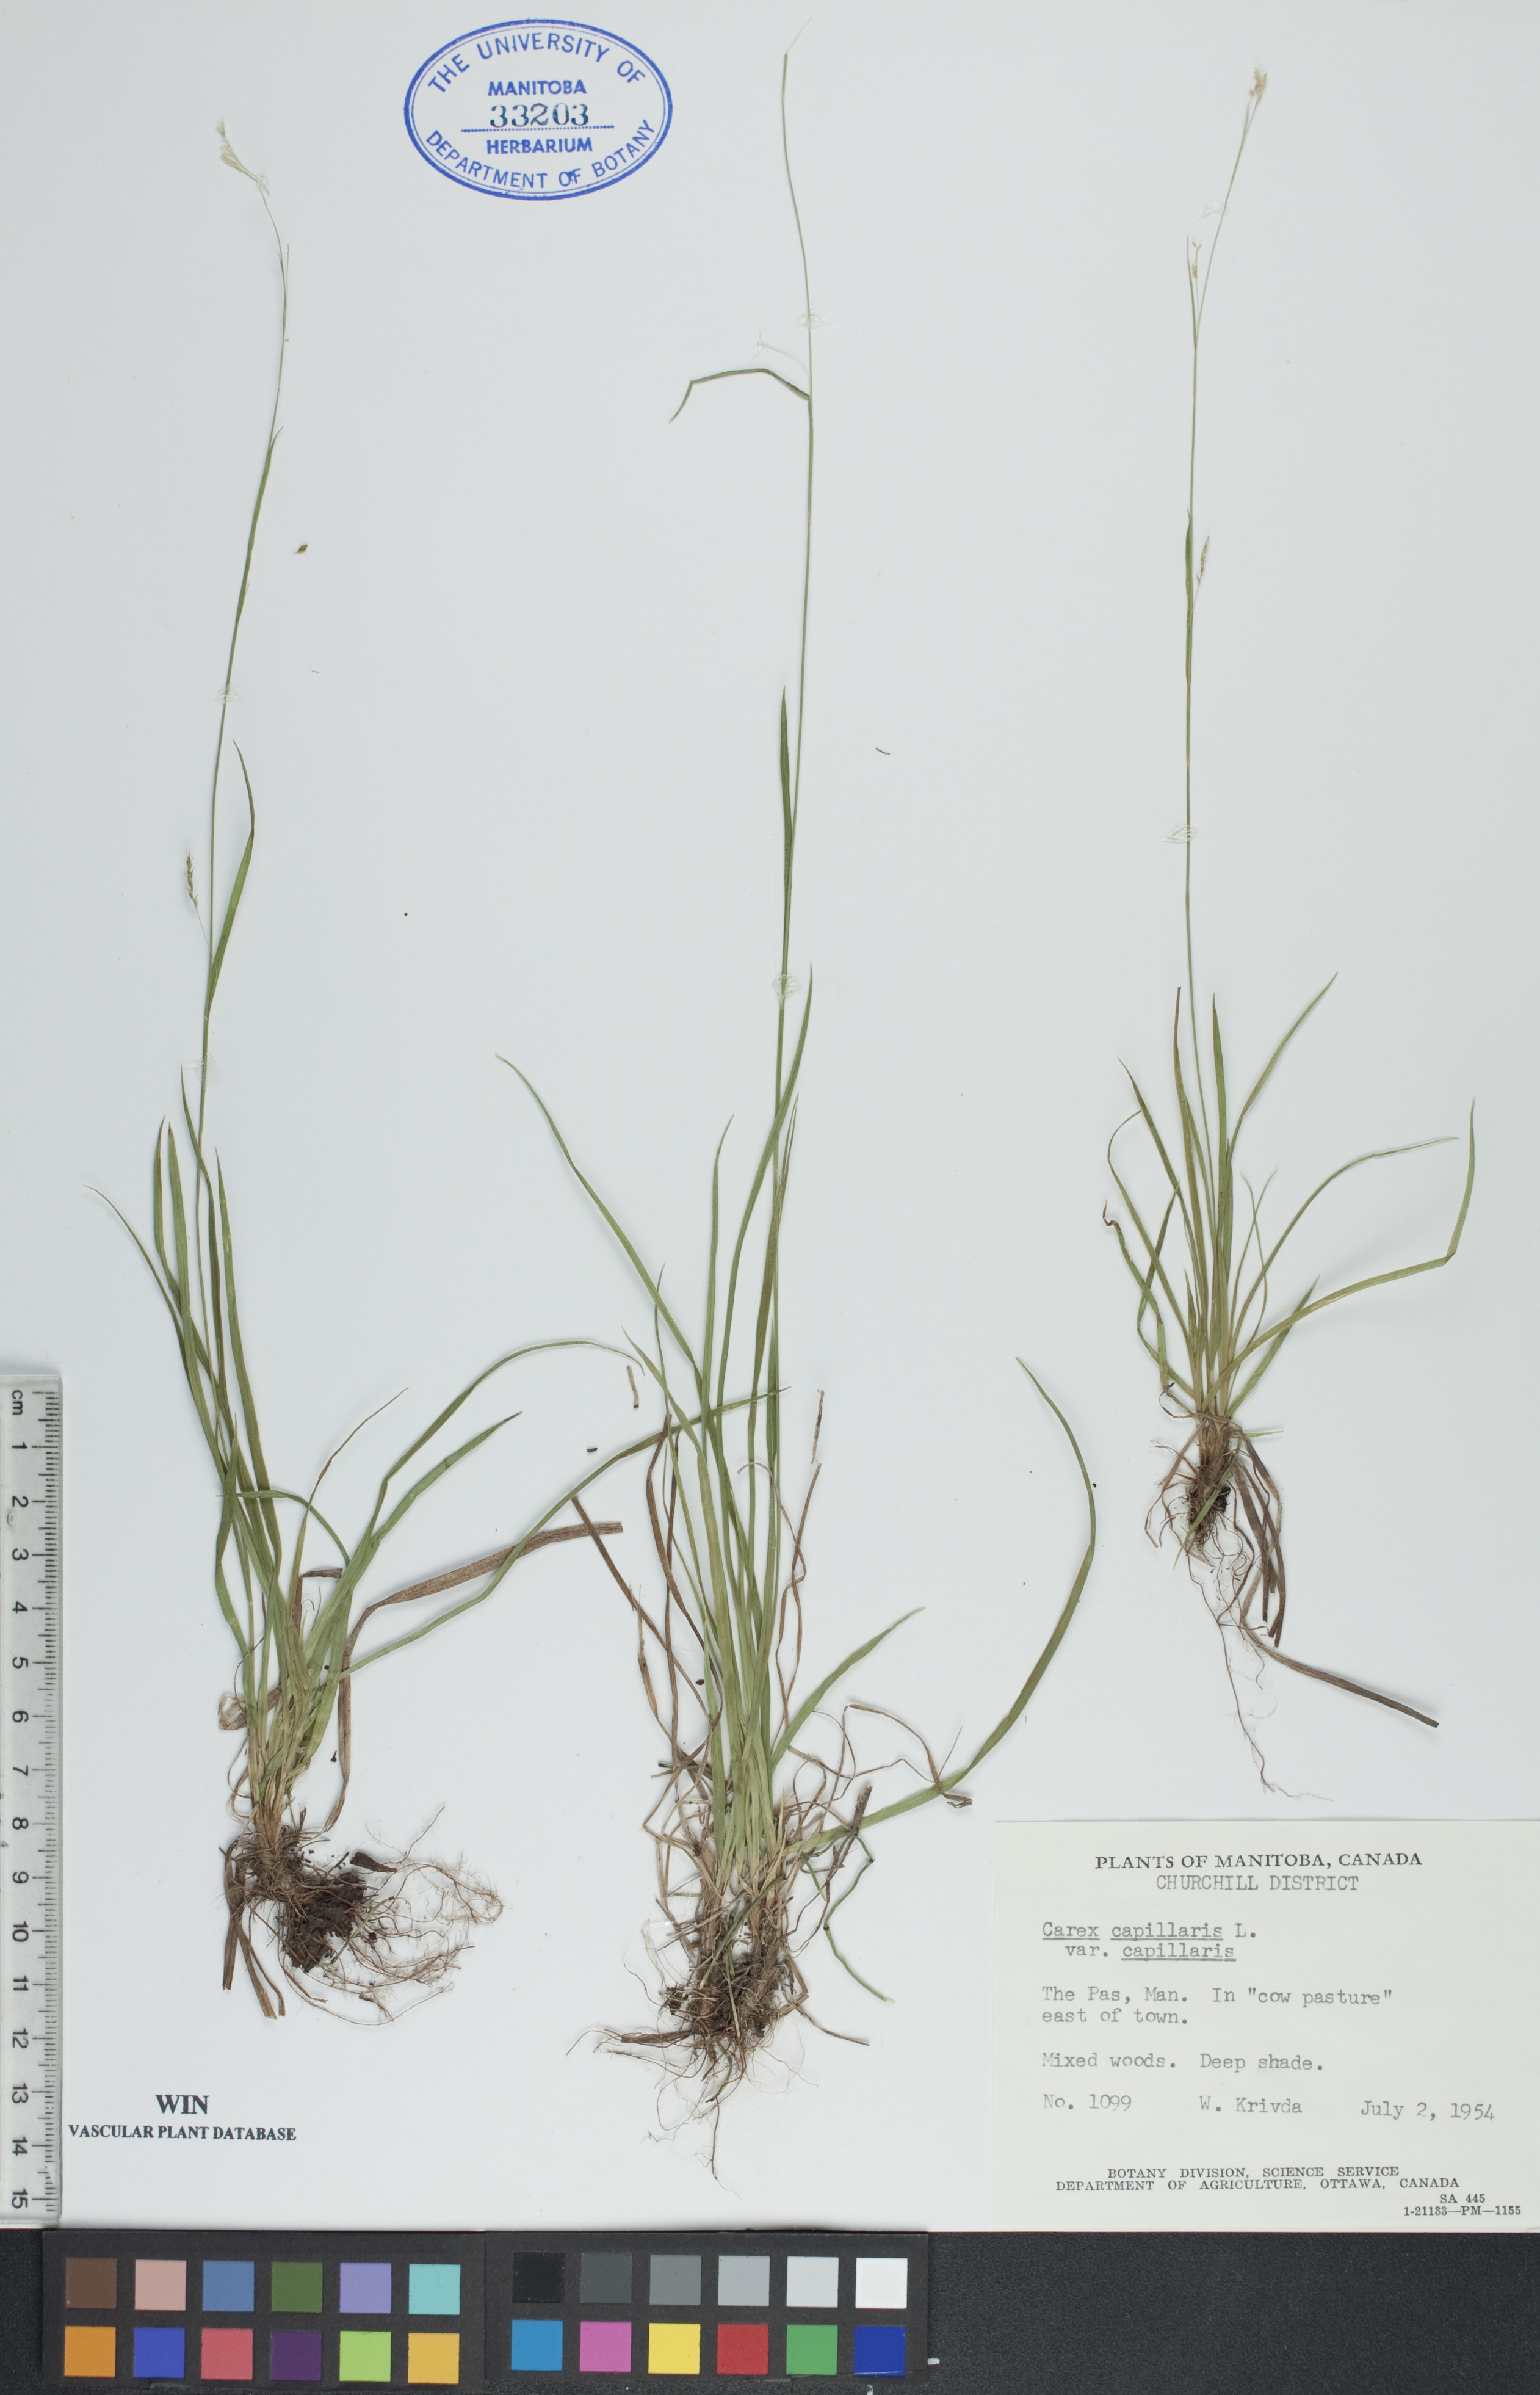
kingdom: Plantae
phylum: Tracheophyta
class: Liliopsida
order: Poales
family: Cyperaceae
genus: Carex
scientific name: Carex capillaris
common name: Hair sedge
